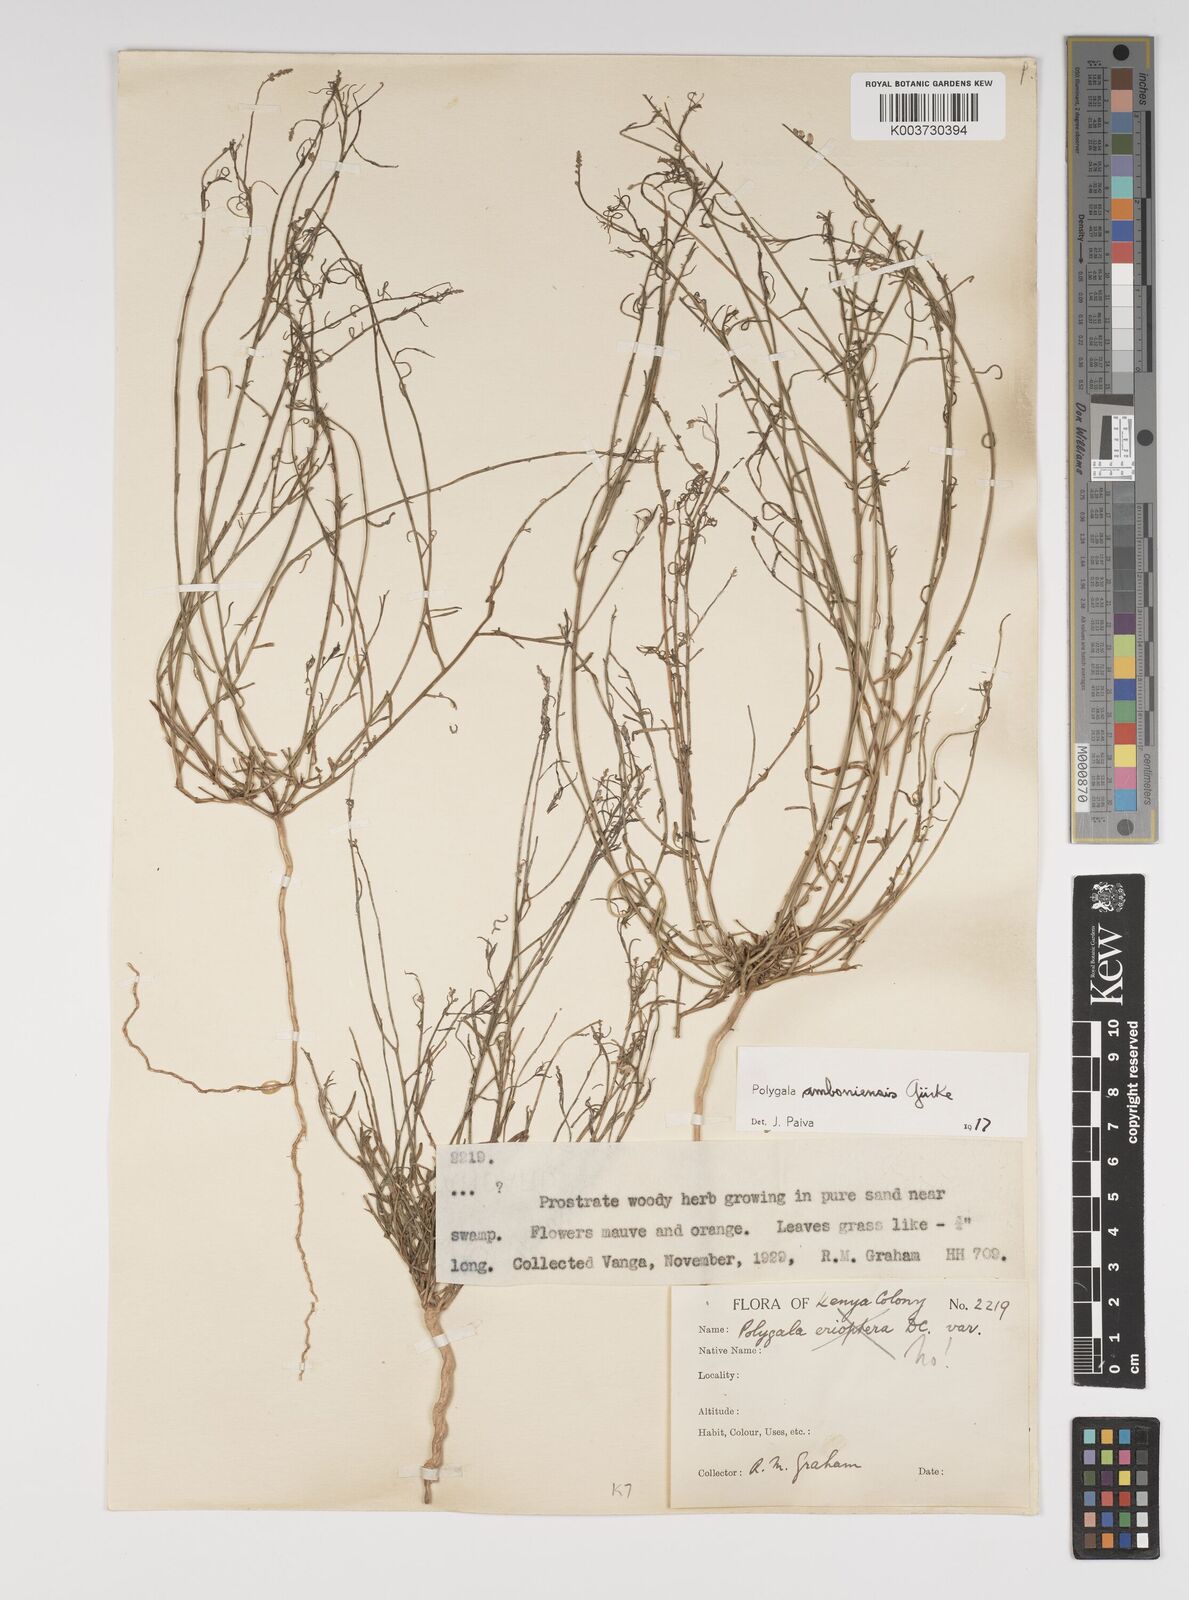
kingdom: Plantae
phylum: Tracheophyta
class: Magnoliopsida
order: Fabales
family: Polygalaceae
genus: Polygala
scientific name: Polygala amboniensis
